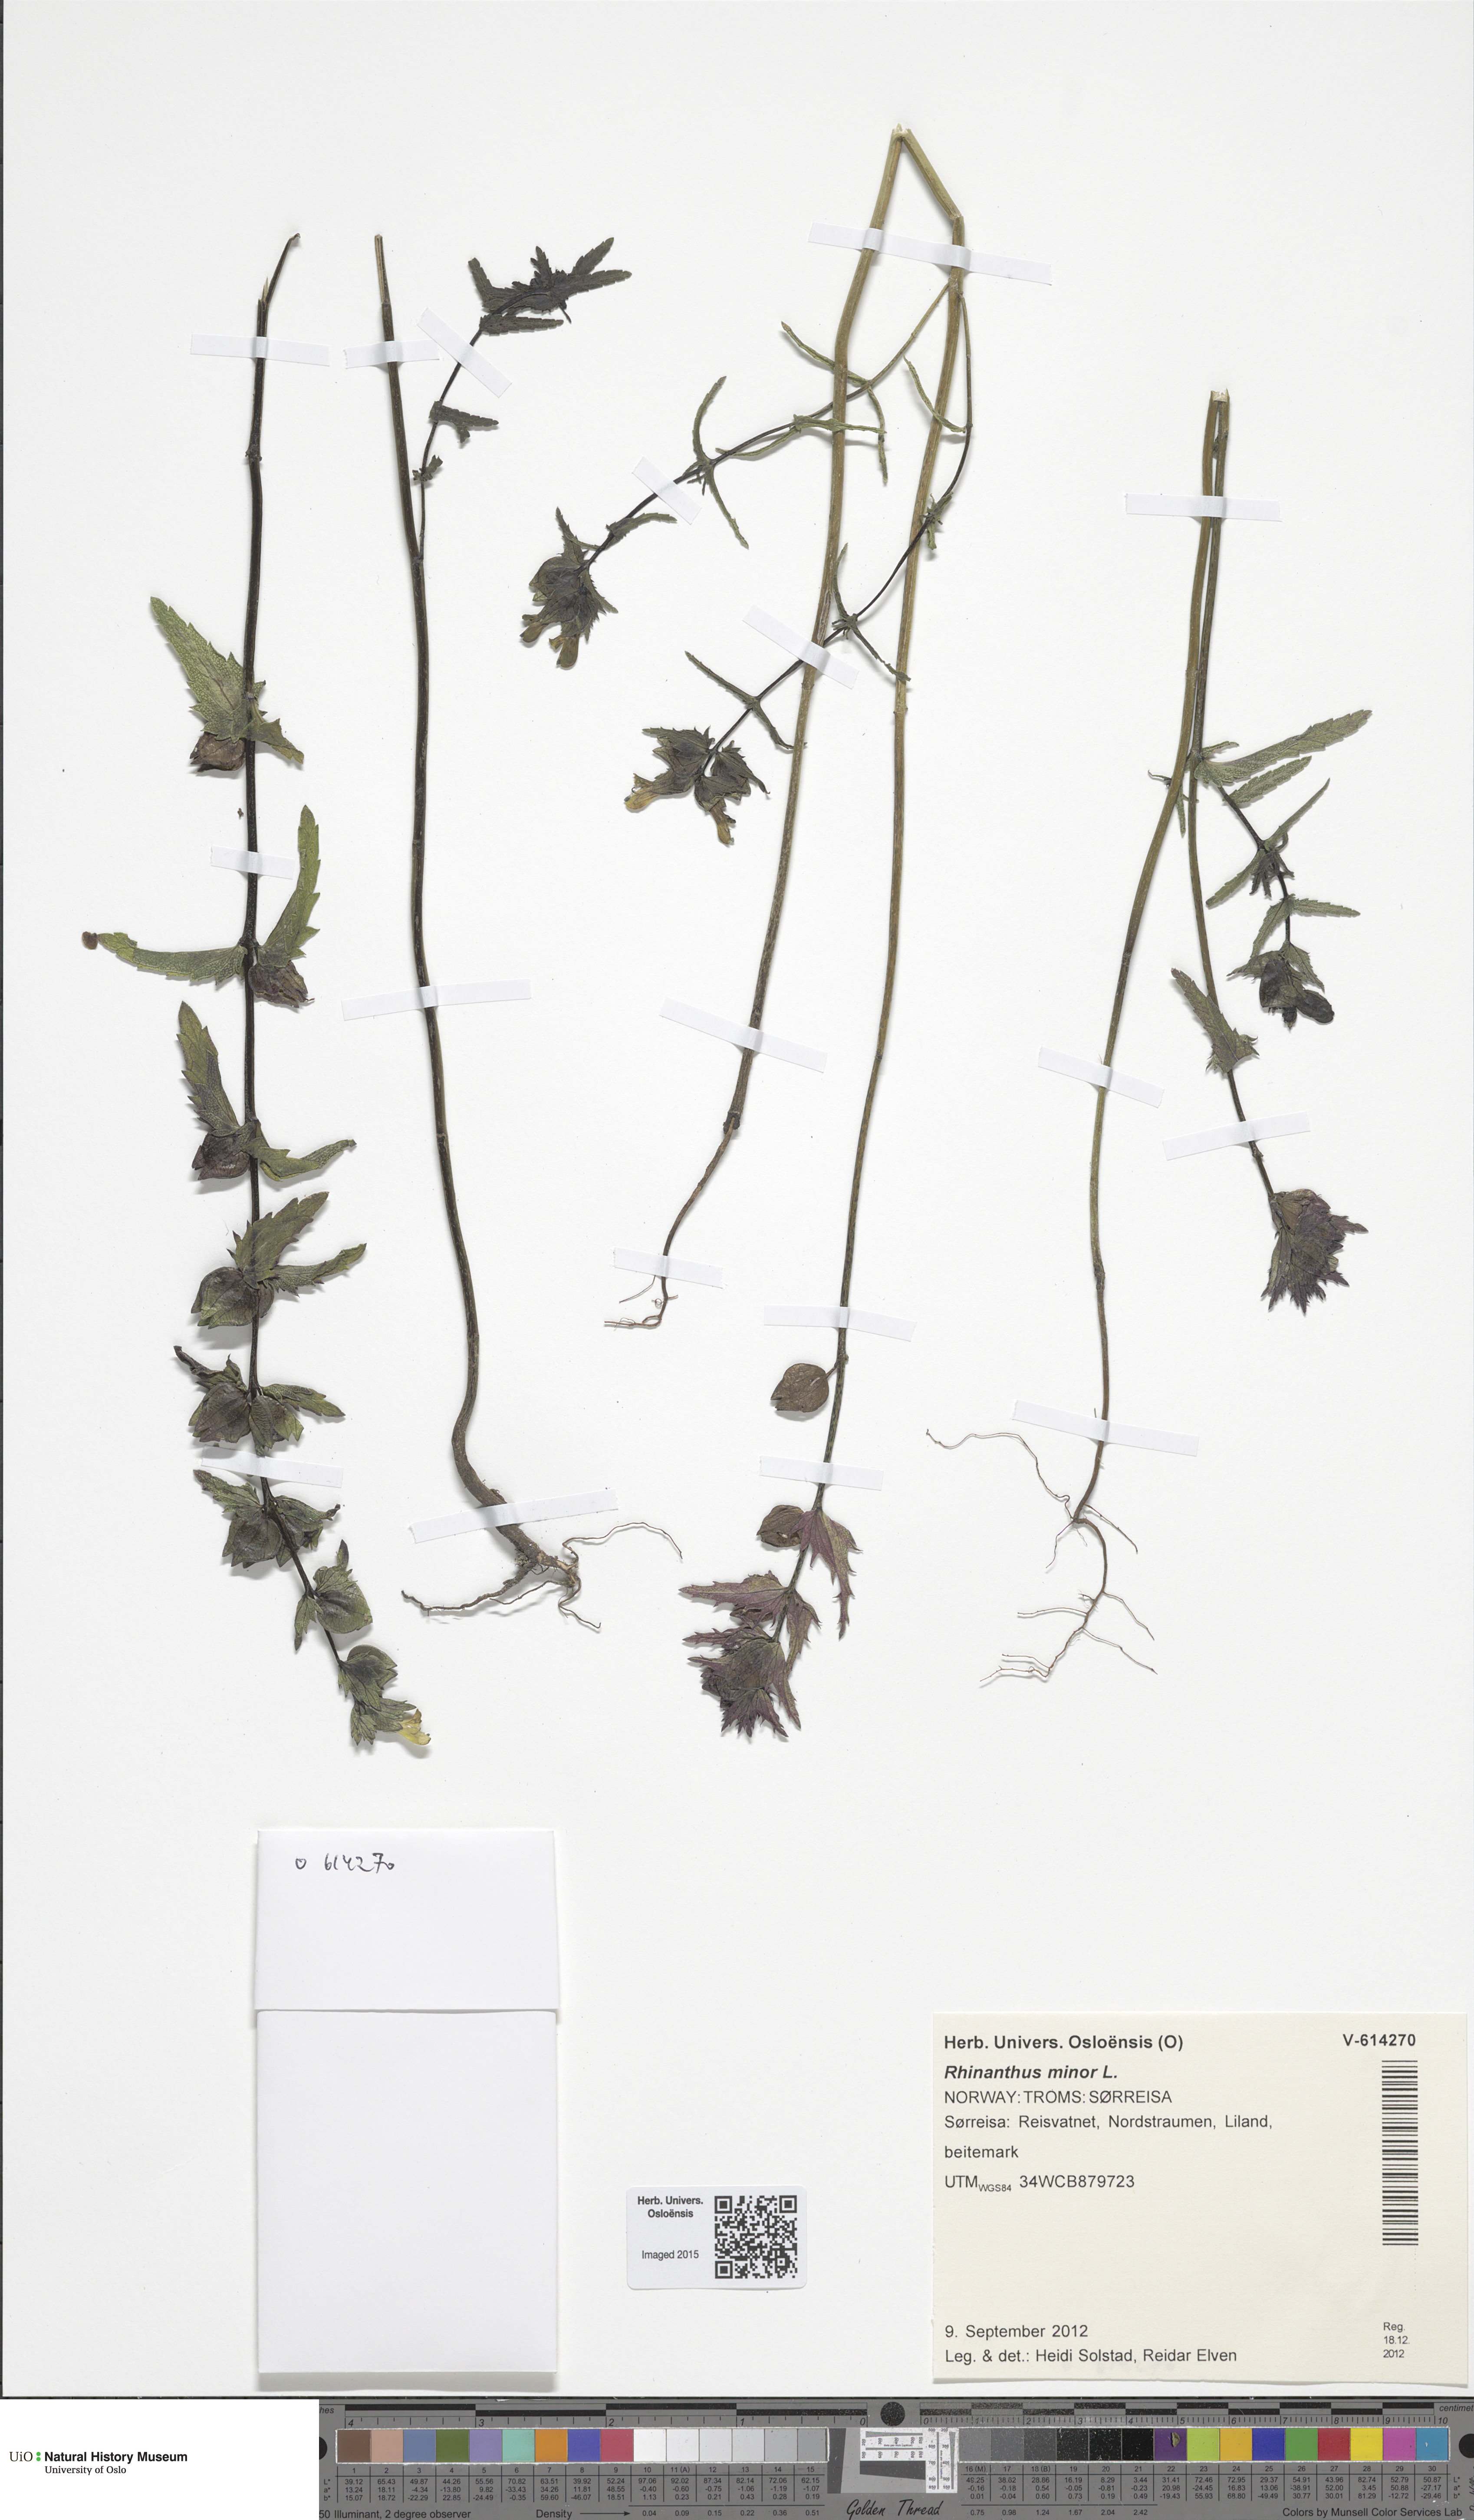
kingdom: Plantae
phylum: Tracheophyta
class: Magnoliopsida
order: Lamiales
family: Orobanchaceae
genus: Rhinanthus
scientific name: Rhinanthus minor
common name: Yellow-rattle
